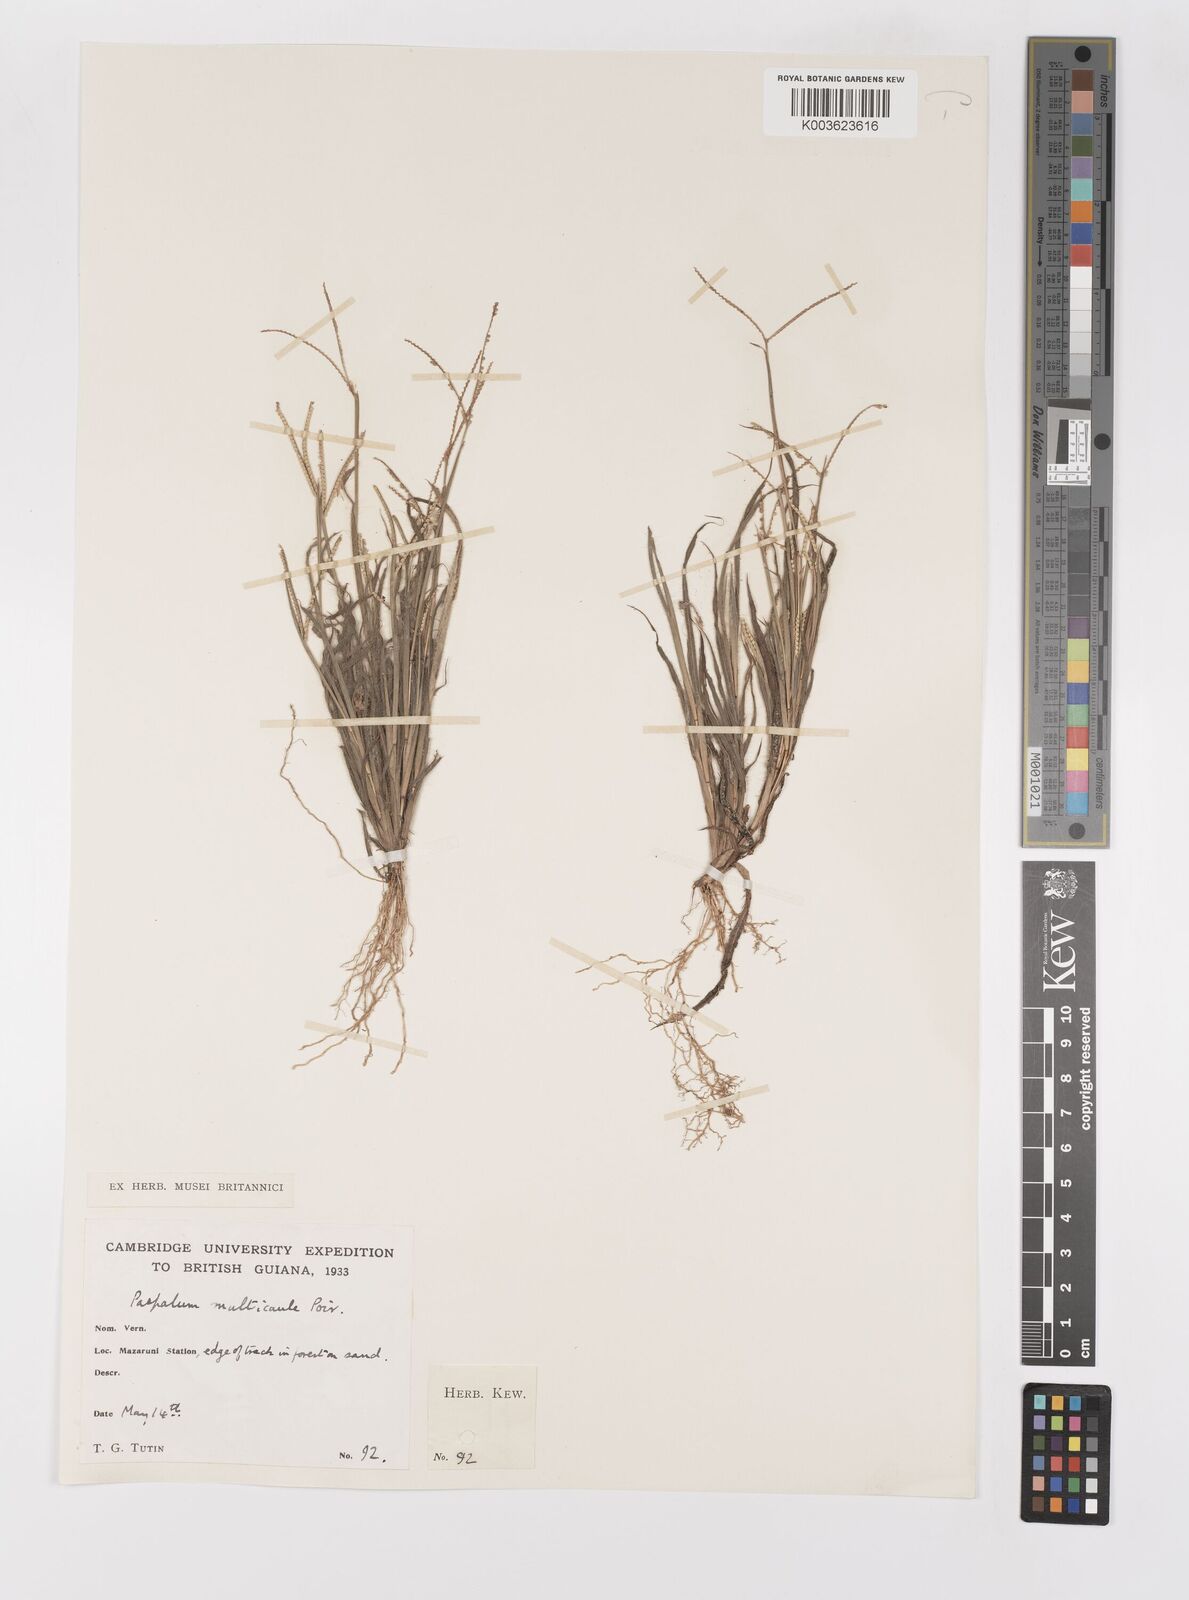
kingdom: Plantae
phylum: Tracheophyta
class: Liliopsida
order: Poales
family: Poaceae
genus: Paspalum
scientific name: Paspalum multicaule
